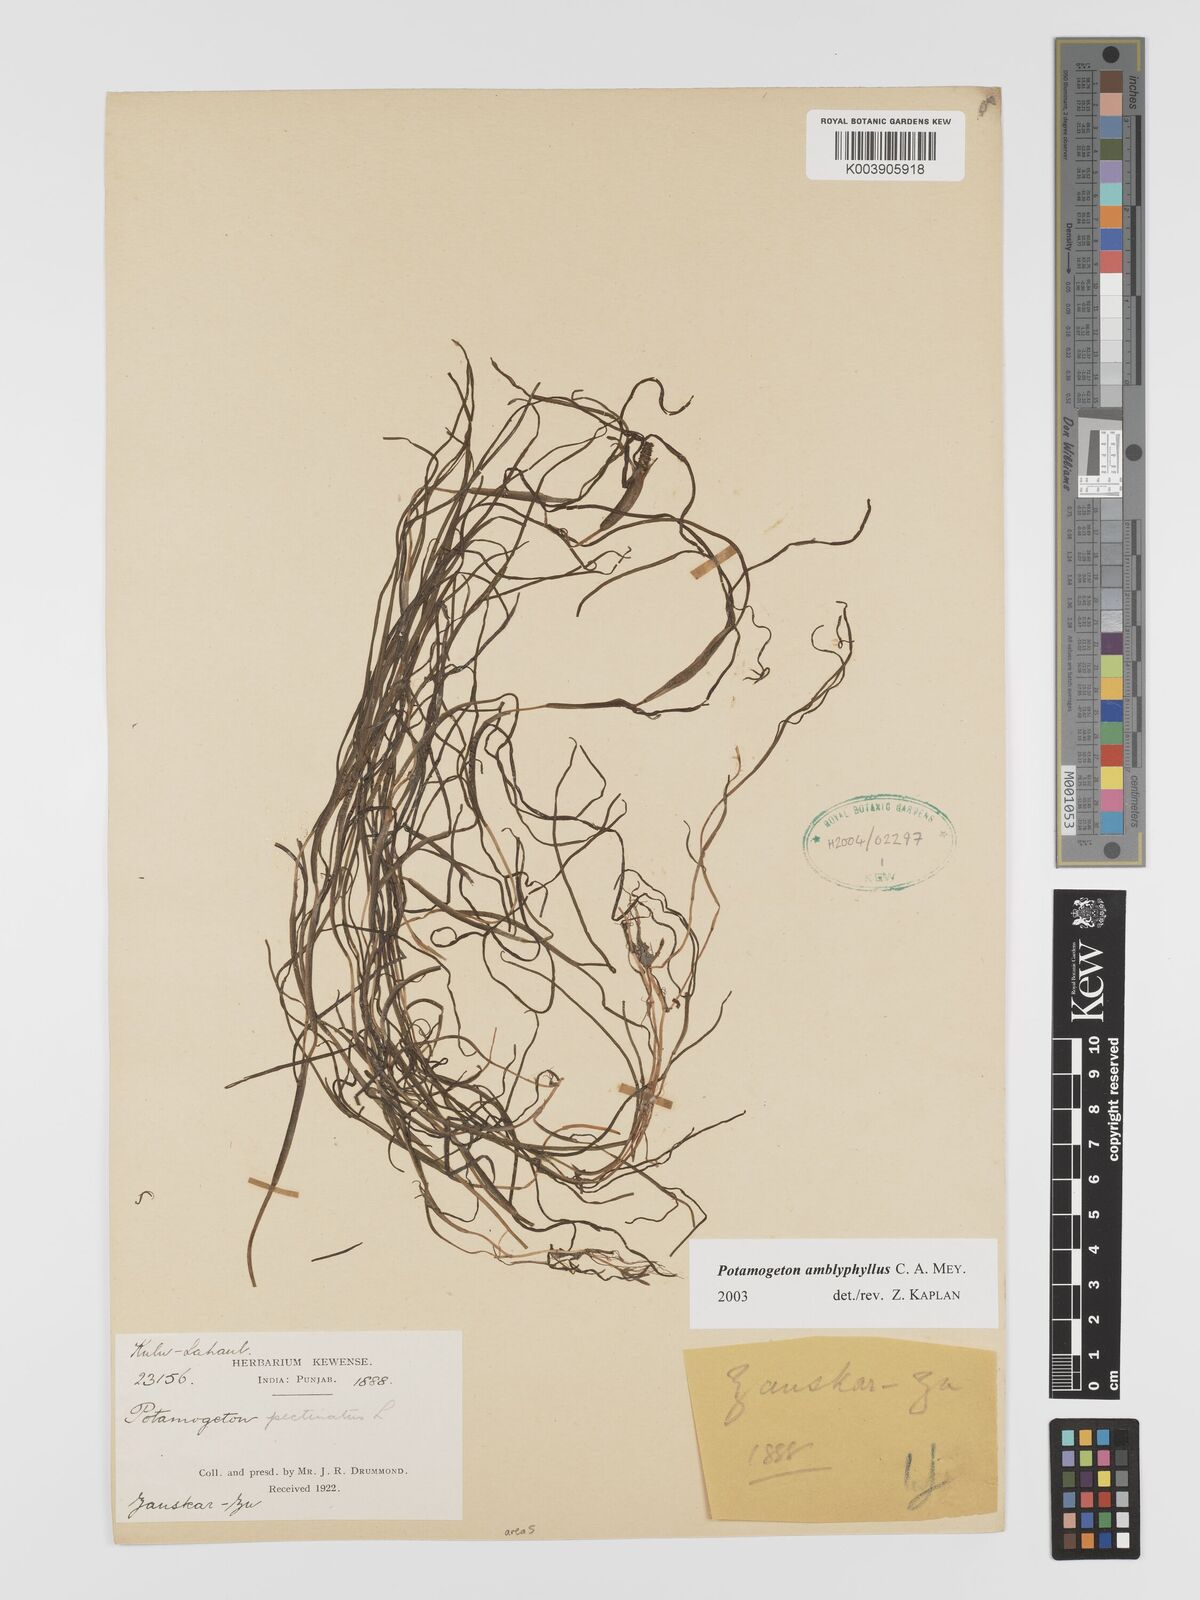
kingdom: Plantae
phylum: Tracheophyta
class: Liliopsida
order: Alismatales
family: Potamogetonaceae
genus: Stuckenia
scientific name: Stuckenia amblyophylla
